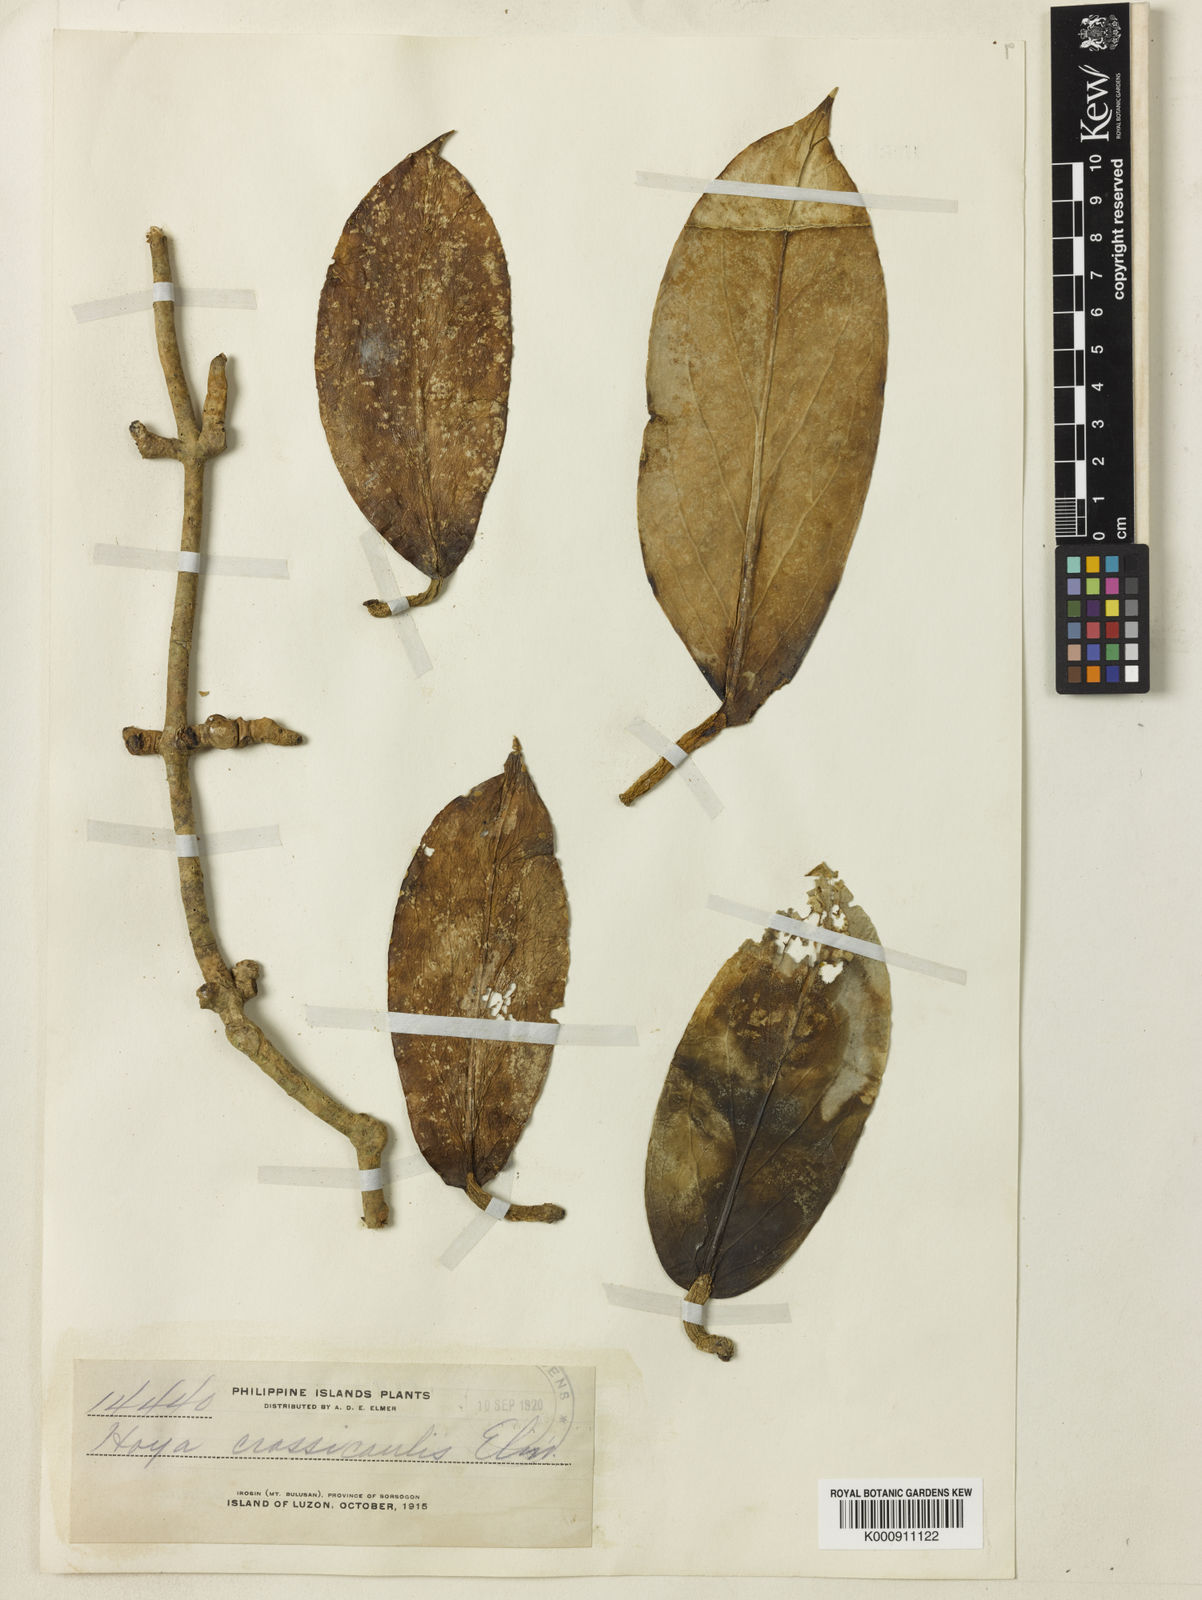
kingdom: Plantae
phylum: Tracheophyta
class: Magnoliopsida
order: Gentianales
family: Apocynaceae
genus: Hoya
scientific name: Hoya
